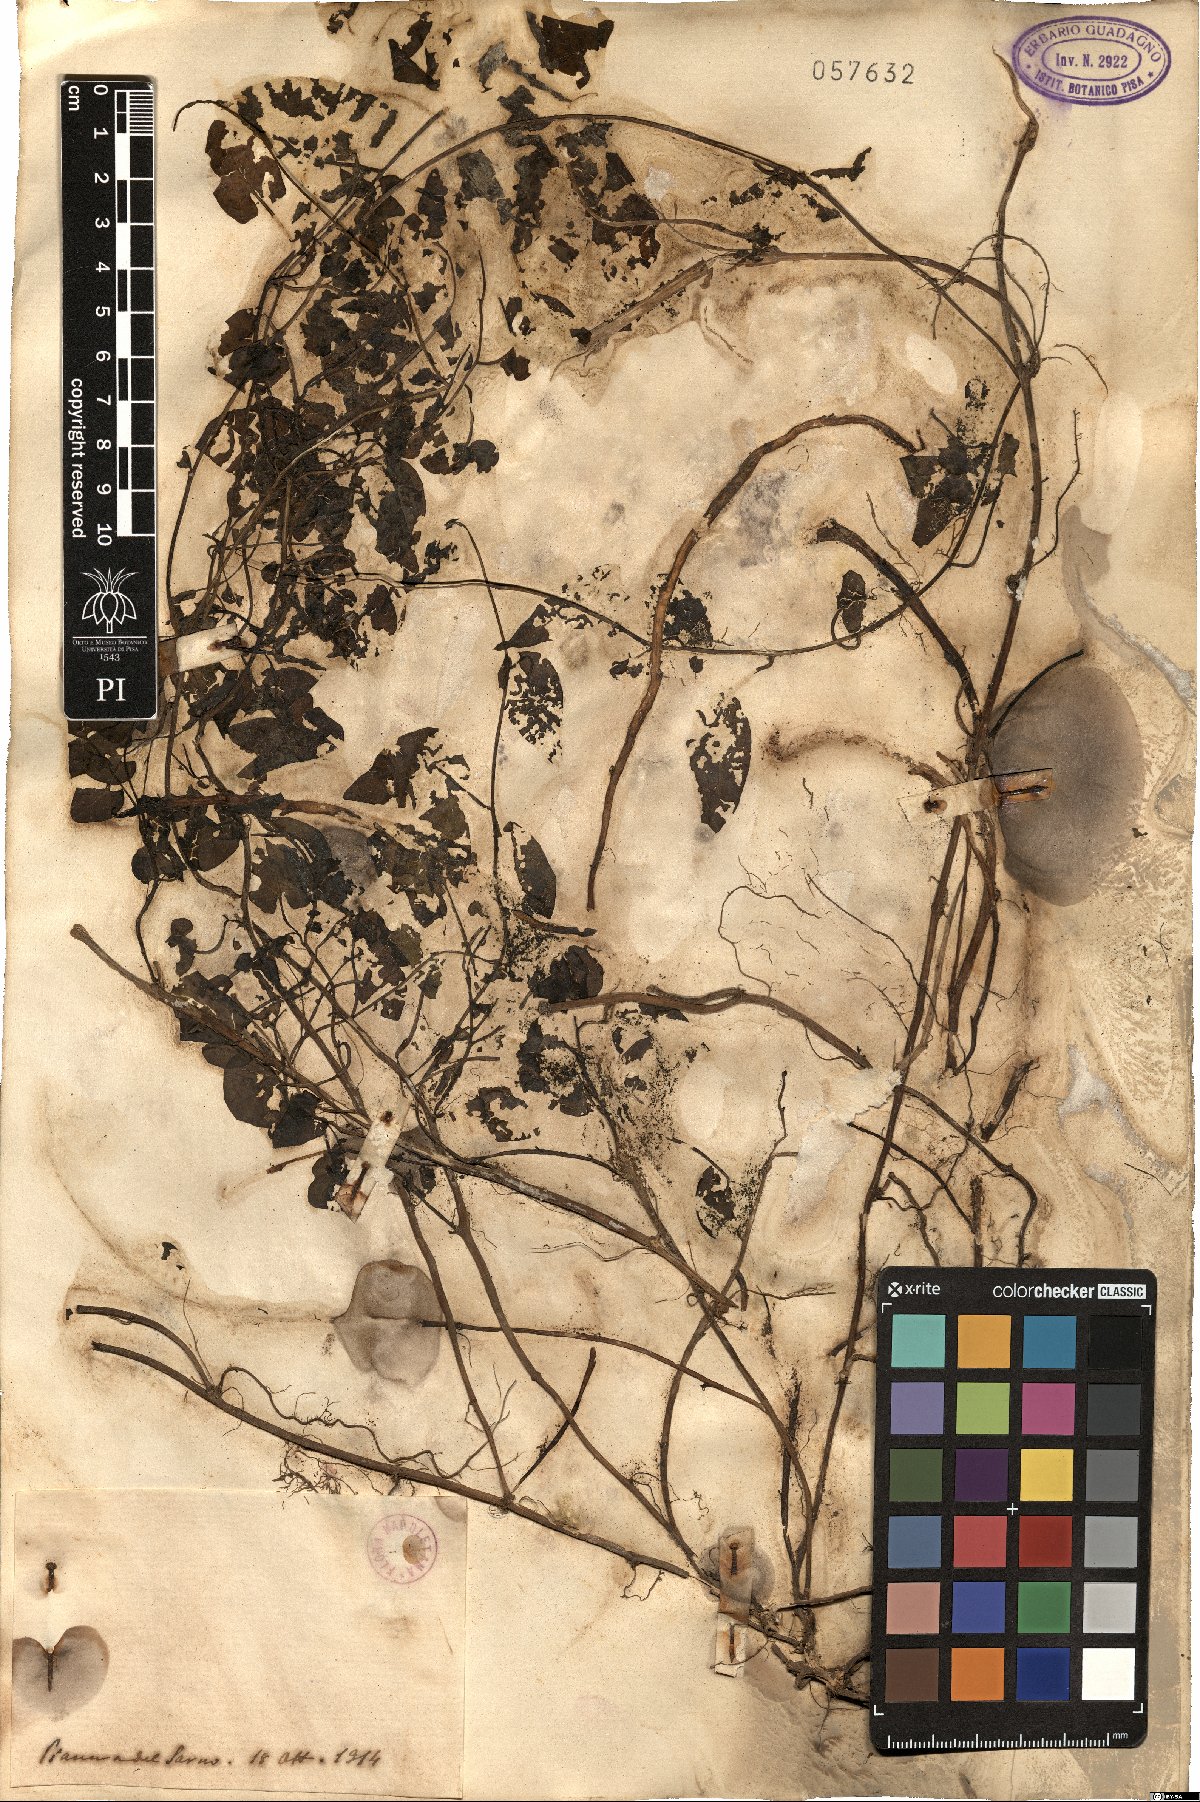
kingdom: Plantae
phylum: Tracheophyta
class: Magnoliopsida
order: Solanales
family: Convolvulaceae
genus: Convolvulus
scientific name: Convolvulus
